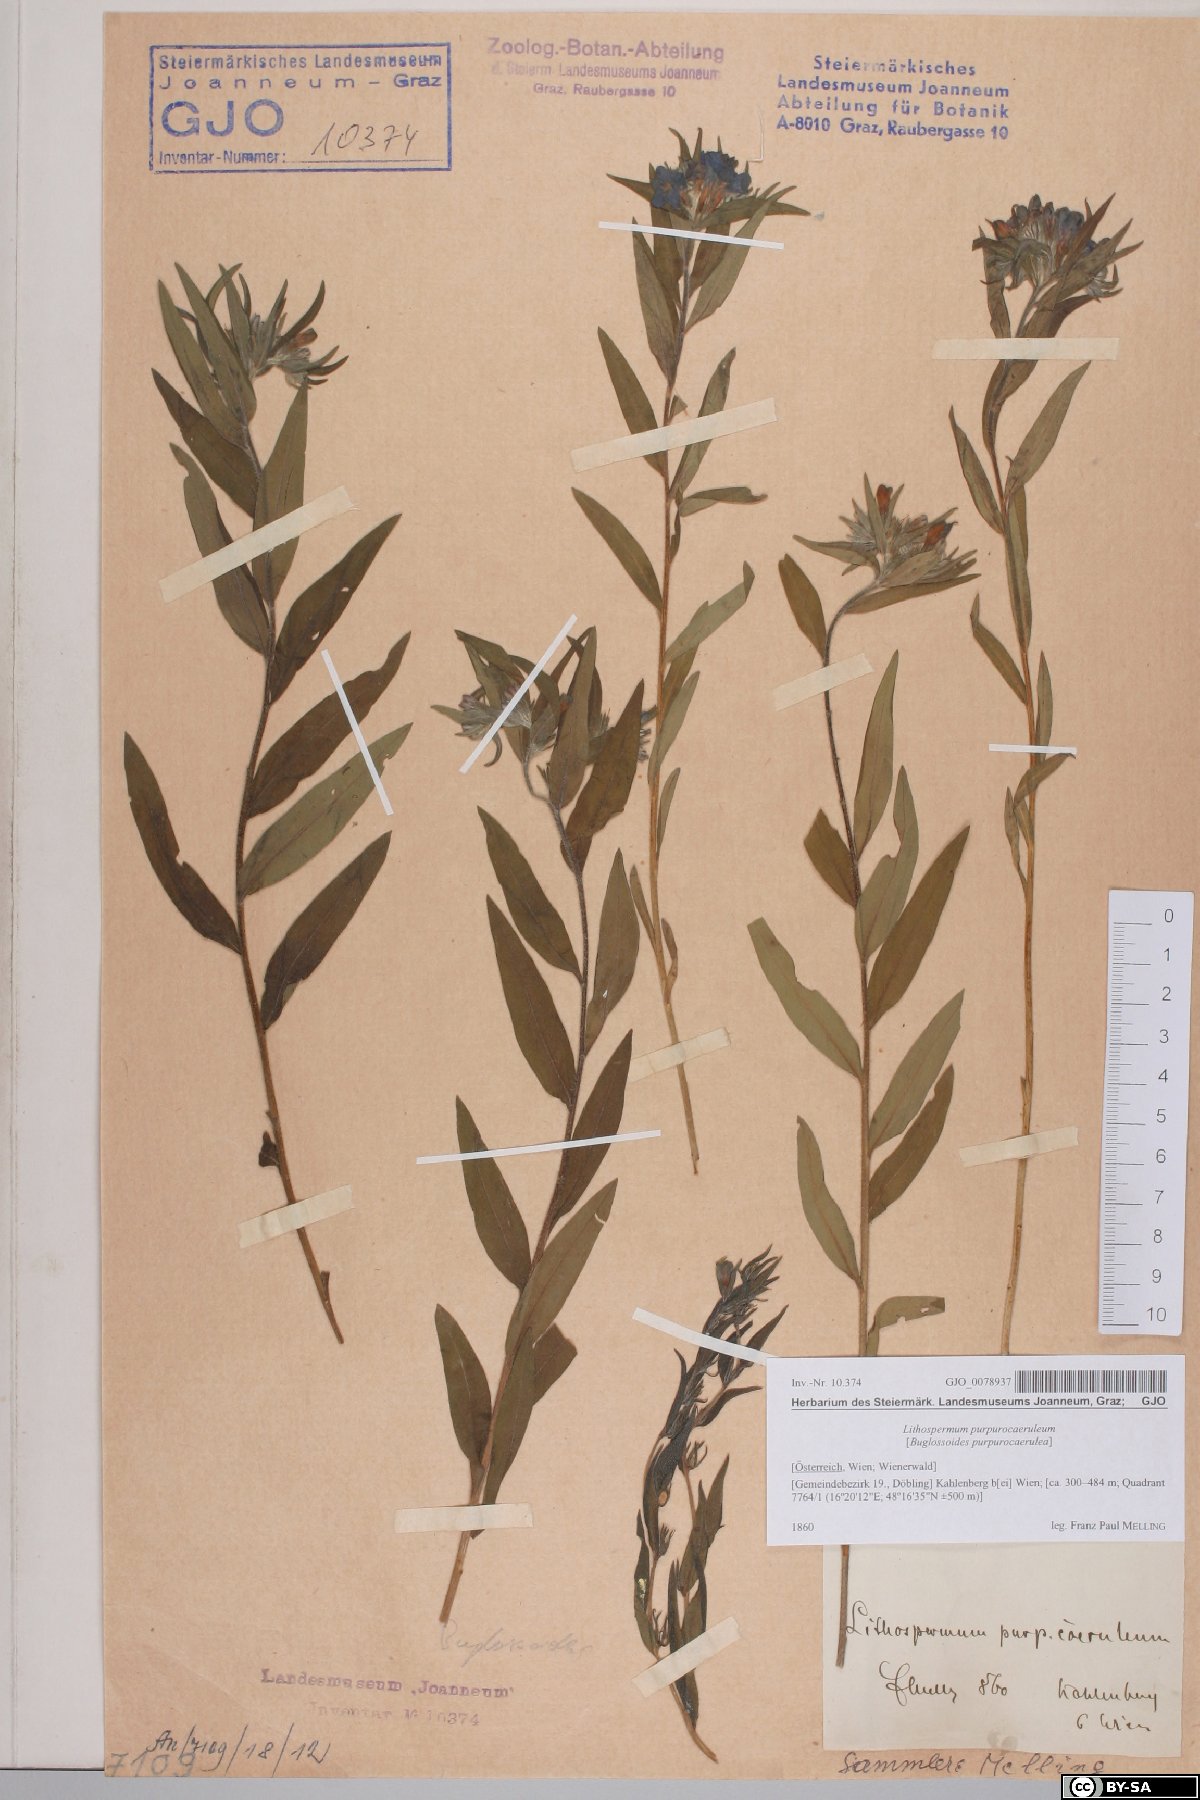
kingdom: Plantae
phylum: Tracheophyta
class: Magnoliopsida
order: Boraginales
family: Boraginaceae
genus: Aegonychon
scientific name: Aegonychon purpurocaeruleum
